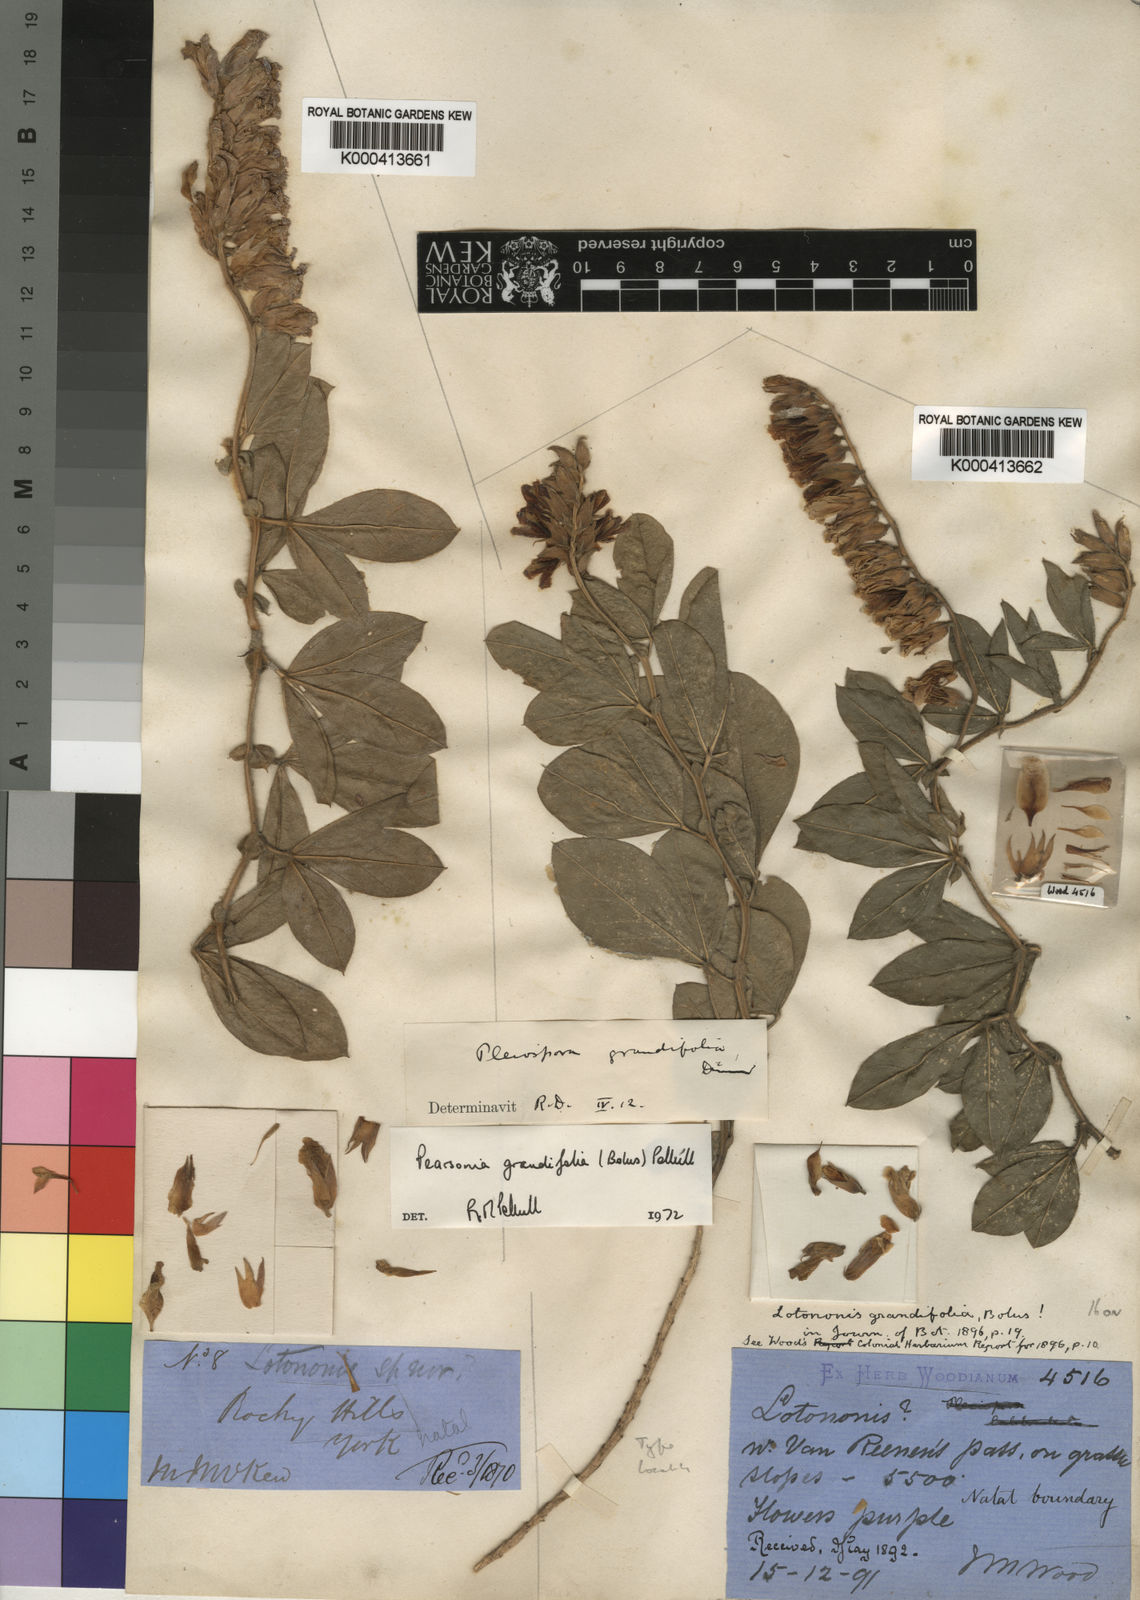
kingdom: Plantae
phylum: Tracheophyta
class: Magnoliopsida
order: Fabales
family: Fabaceae
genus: Pearsonia
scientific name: Pearsonia grandifolia
